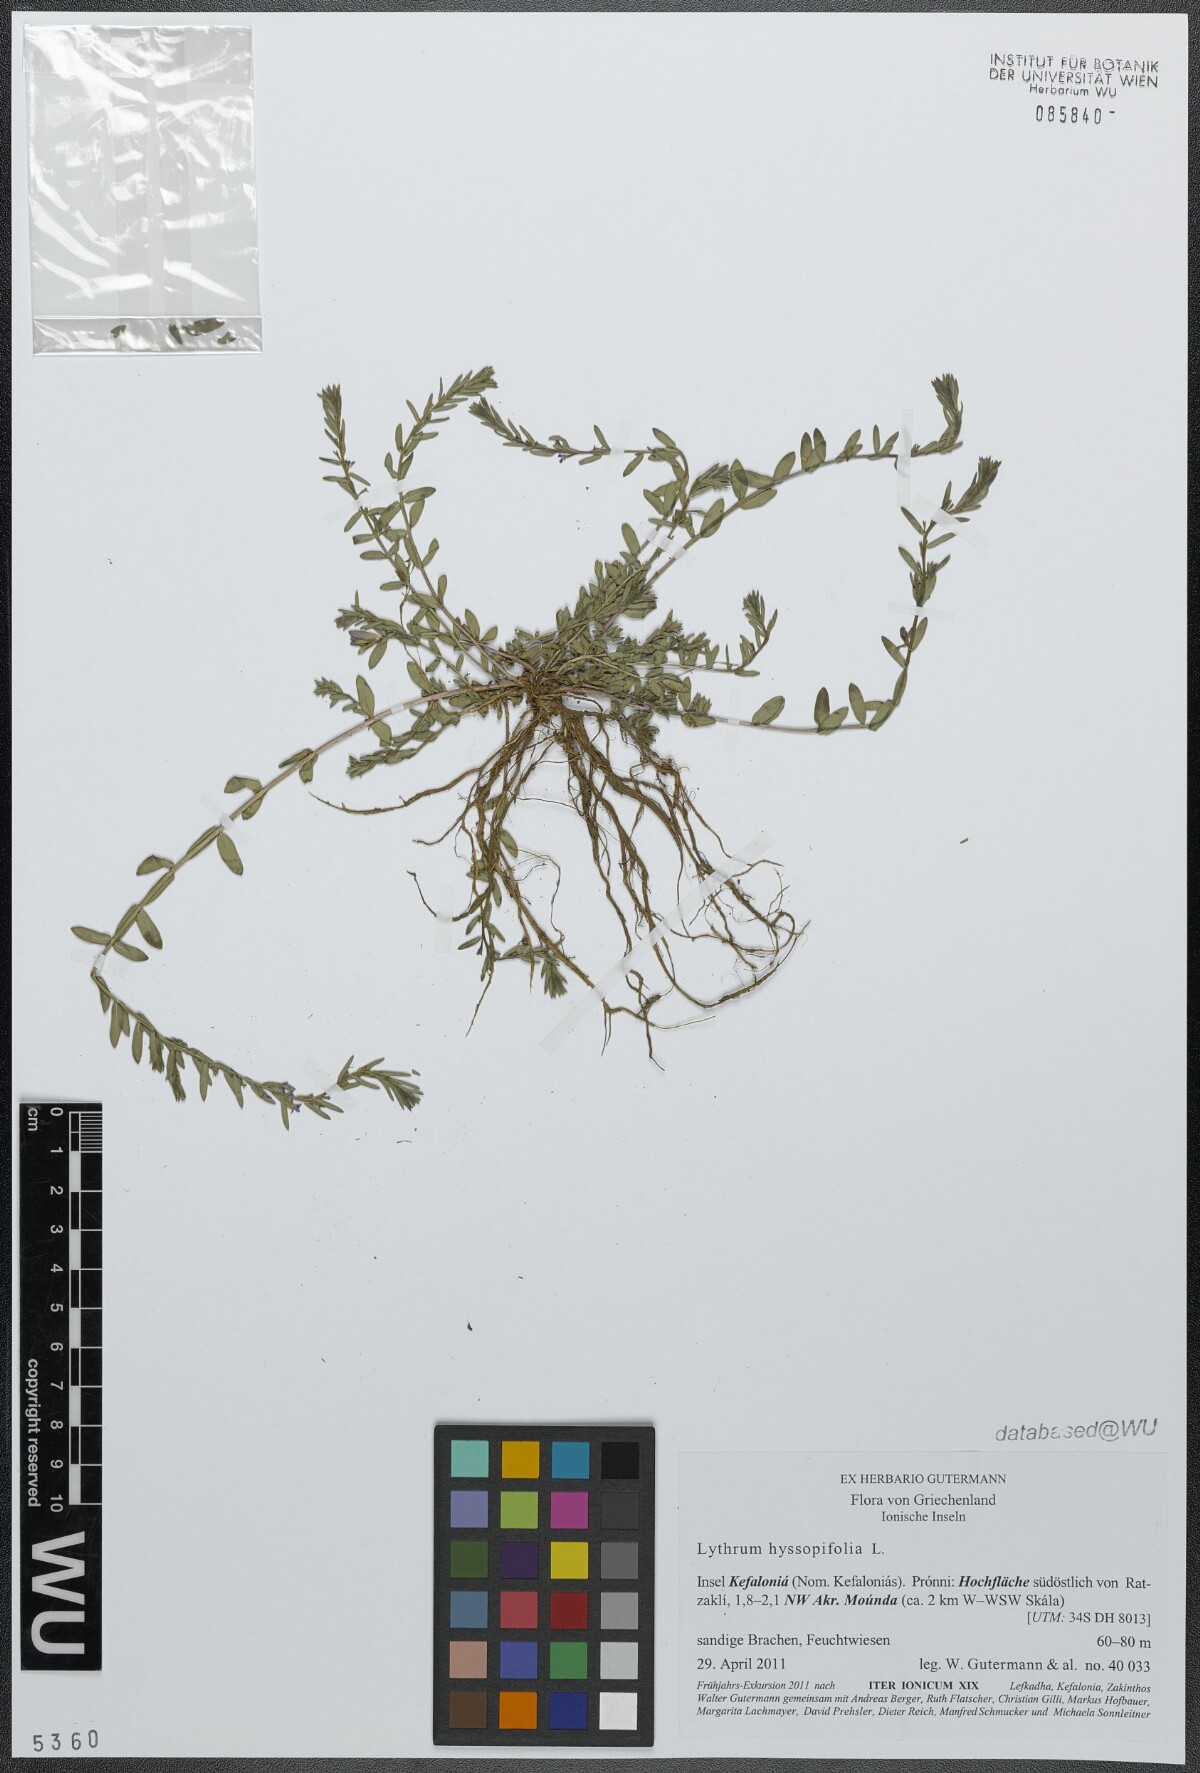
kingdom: Plantae
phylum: Tracheophyta
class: Magnoliopsida
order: Myrtales
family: Lythraceae
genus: Lythrum
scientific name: Lythrum hyssopifolia
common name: Grass-poly
